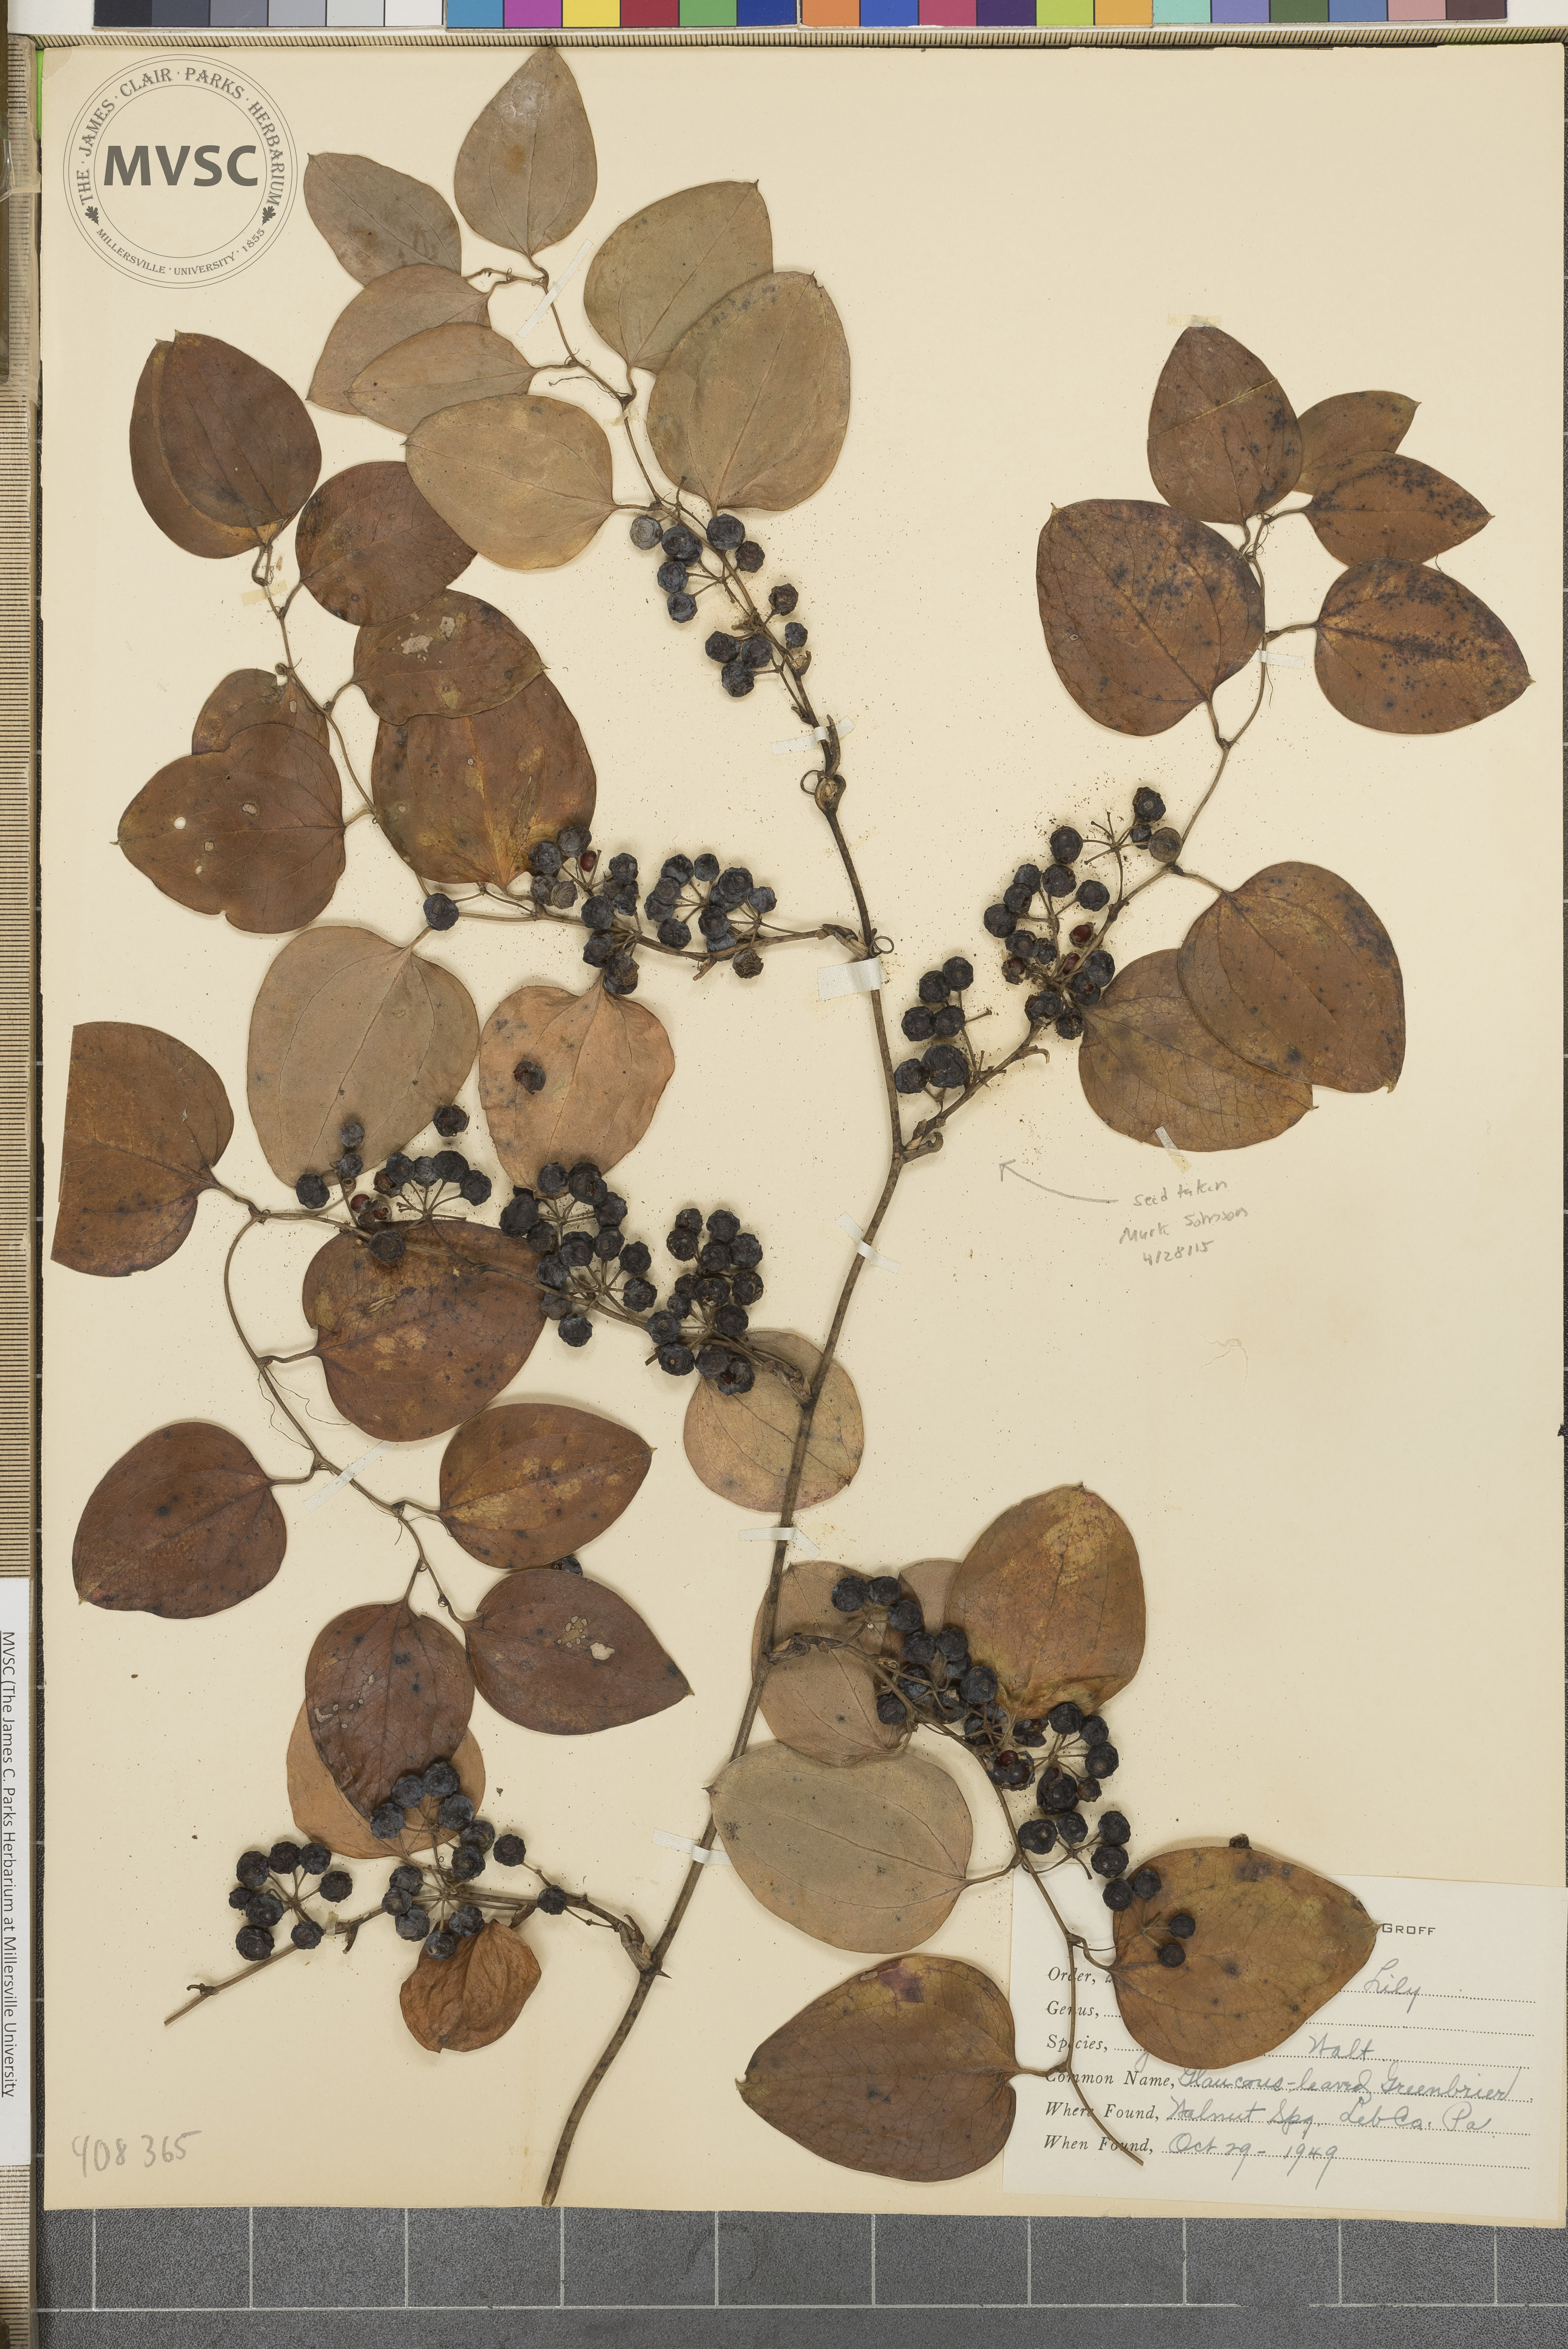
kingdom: Plantae
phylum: Tracheophyta
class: Liliopsida
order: Liliales
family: Smilacaceae
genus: Smilax
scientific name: Smilax glauca
